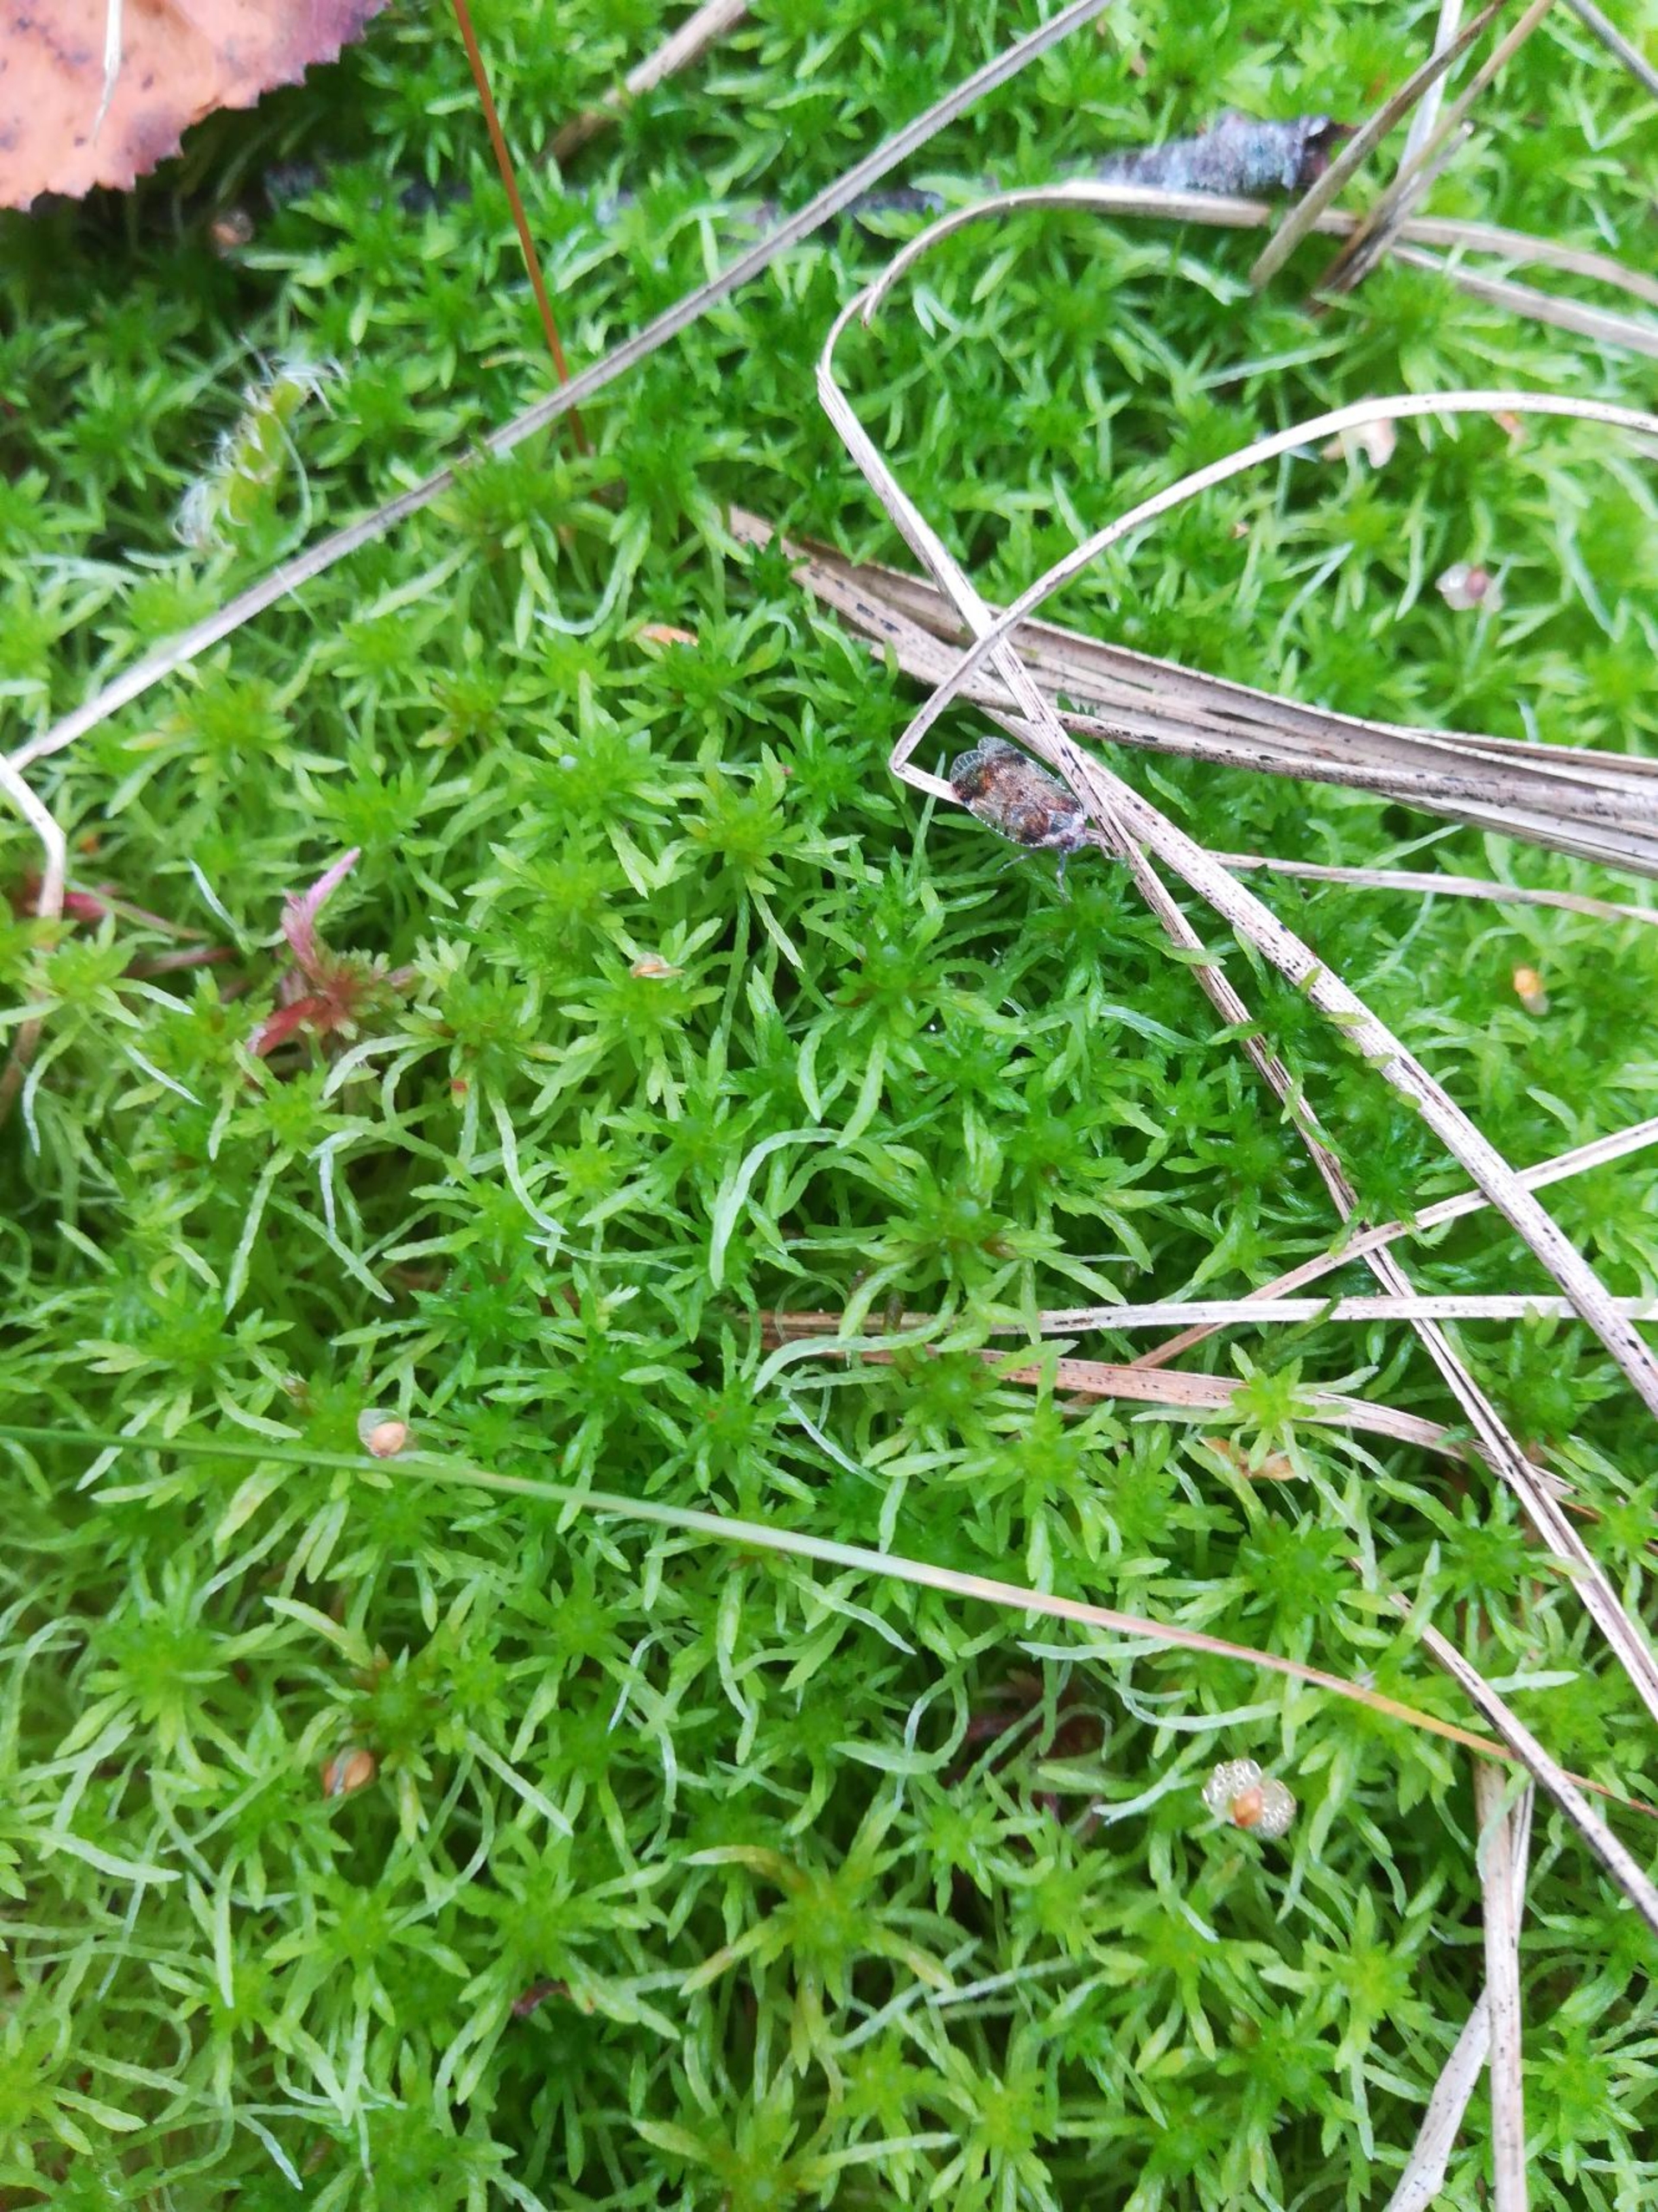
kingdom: Plantae
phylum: Bryophyta
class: Sphagnopsida
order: Sphagnales
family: Sphagnaceae
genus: Sphagnum
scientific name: Sphagnum fimbriatum
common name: Frynset tørvemos
